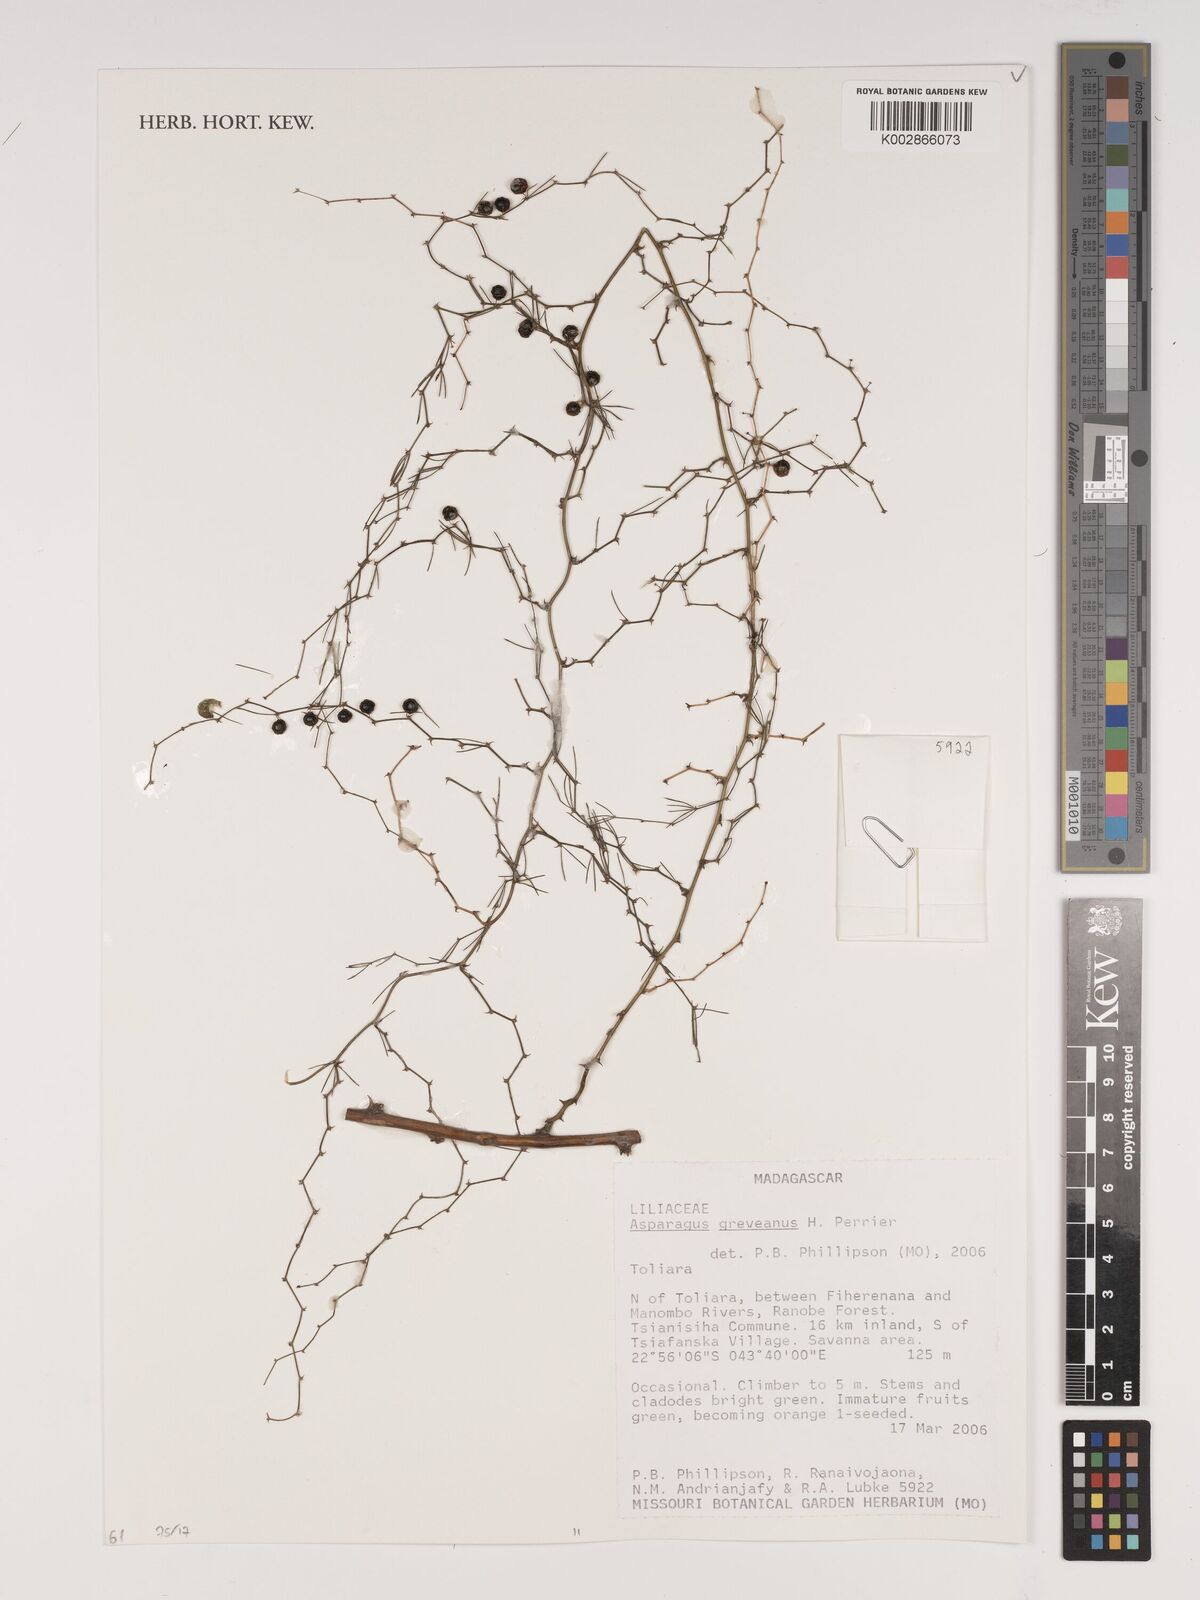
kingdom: Plantae
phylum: Tracheophyta
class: Liliopsida
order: Asparagales
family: Asparagaceae
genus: Asparagus
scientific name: Asparagus greveanus
